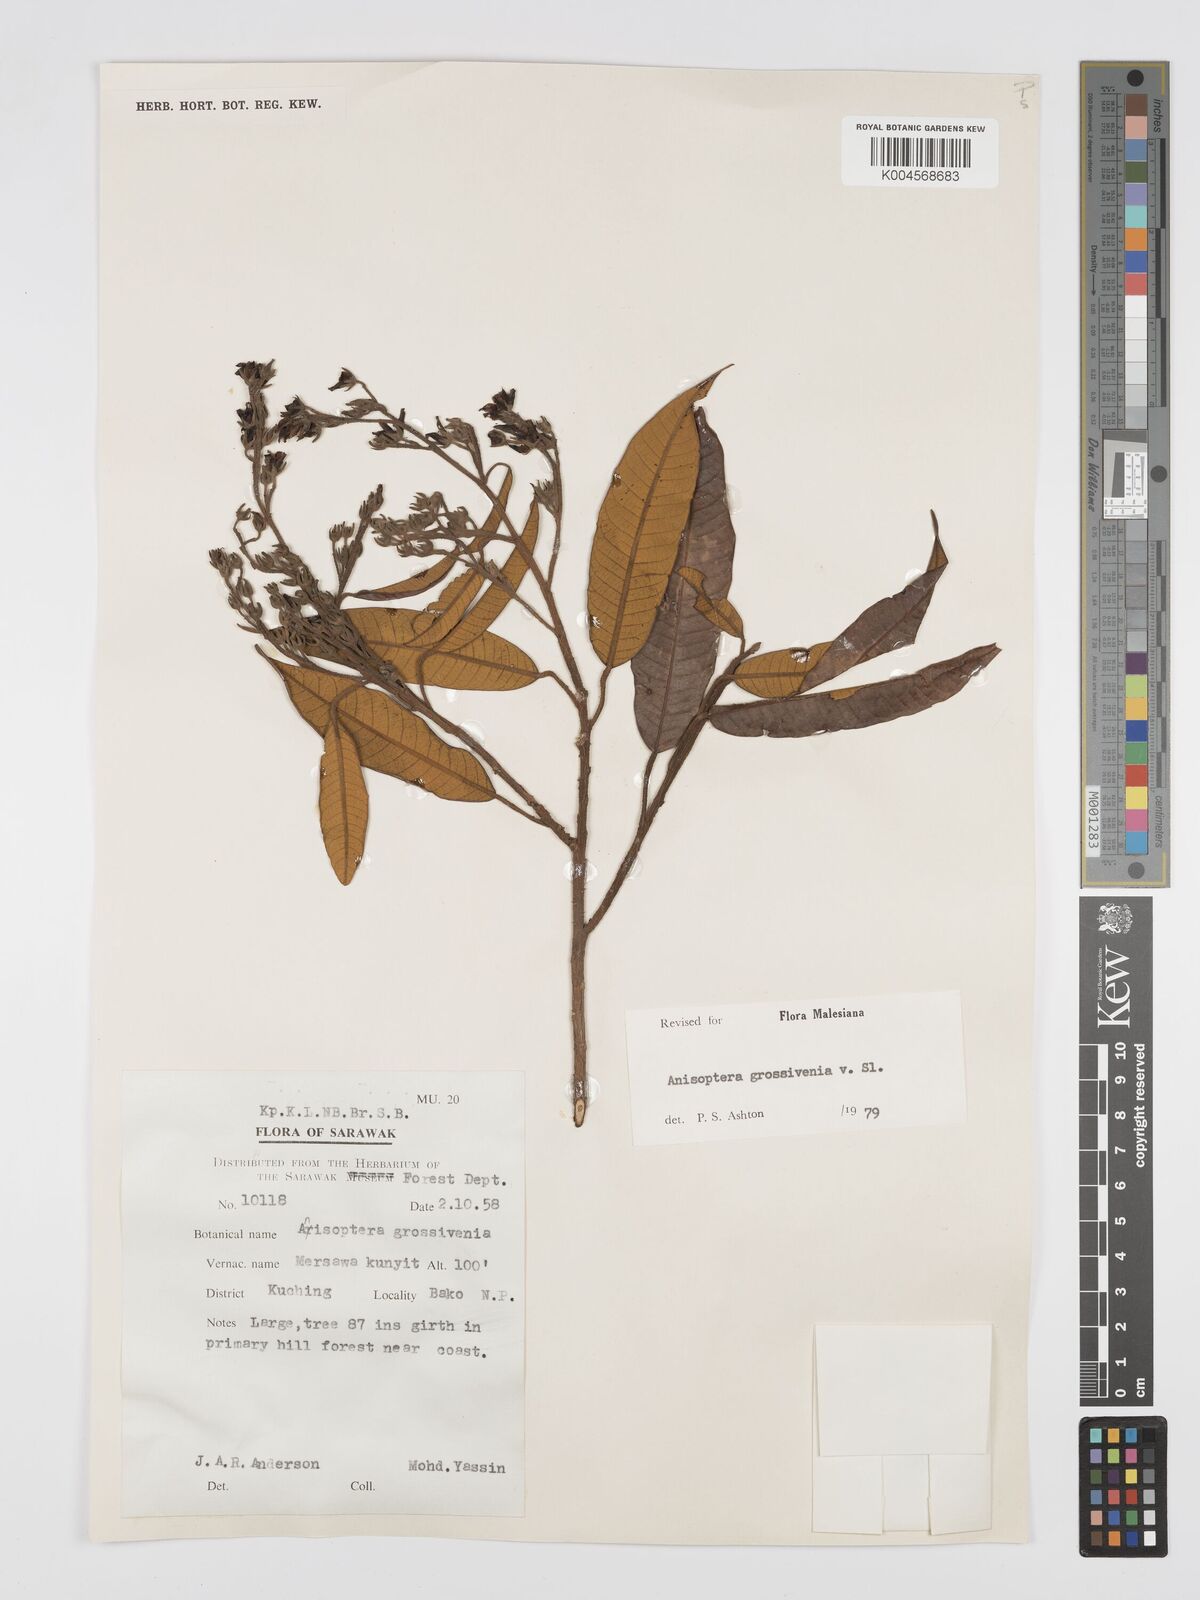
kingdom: Plantae
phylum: Tracheophyta
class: Magnoliopsida
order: Malvales
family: Dipterocarpaceae
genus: Anisoptera
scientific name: Anisoptera grossivenia
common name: Krabak
